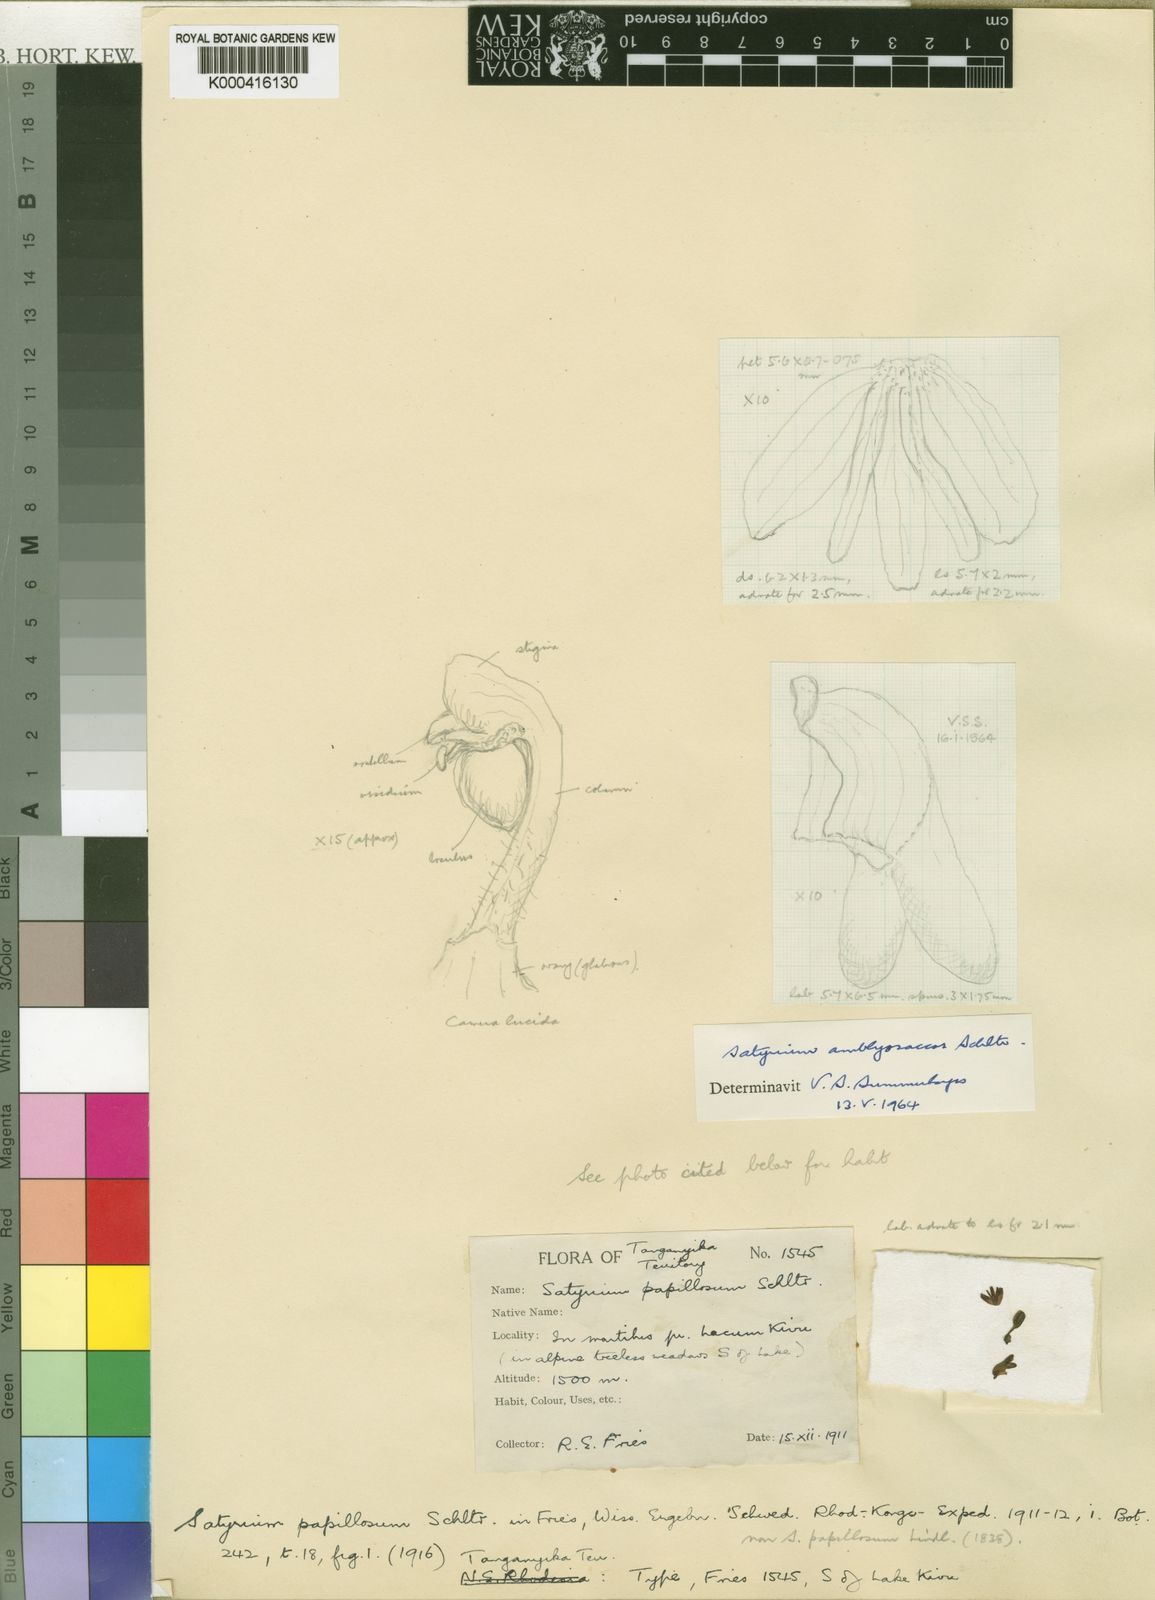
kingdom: Plantae
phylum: Tracheophyta
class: Liliopsida
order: Asparagales
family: Orchidaceae
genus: Satyrium
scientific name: Satyrium amblyosaccos
